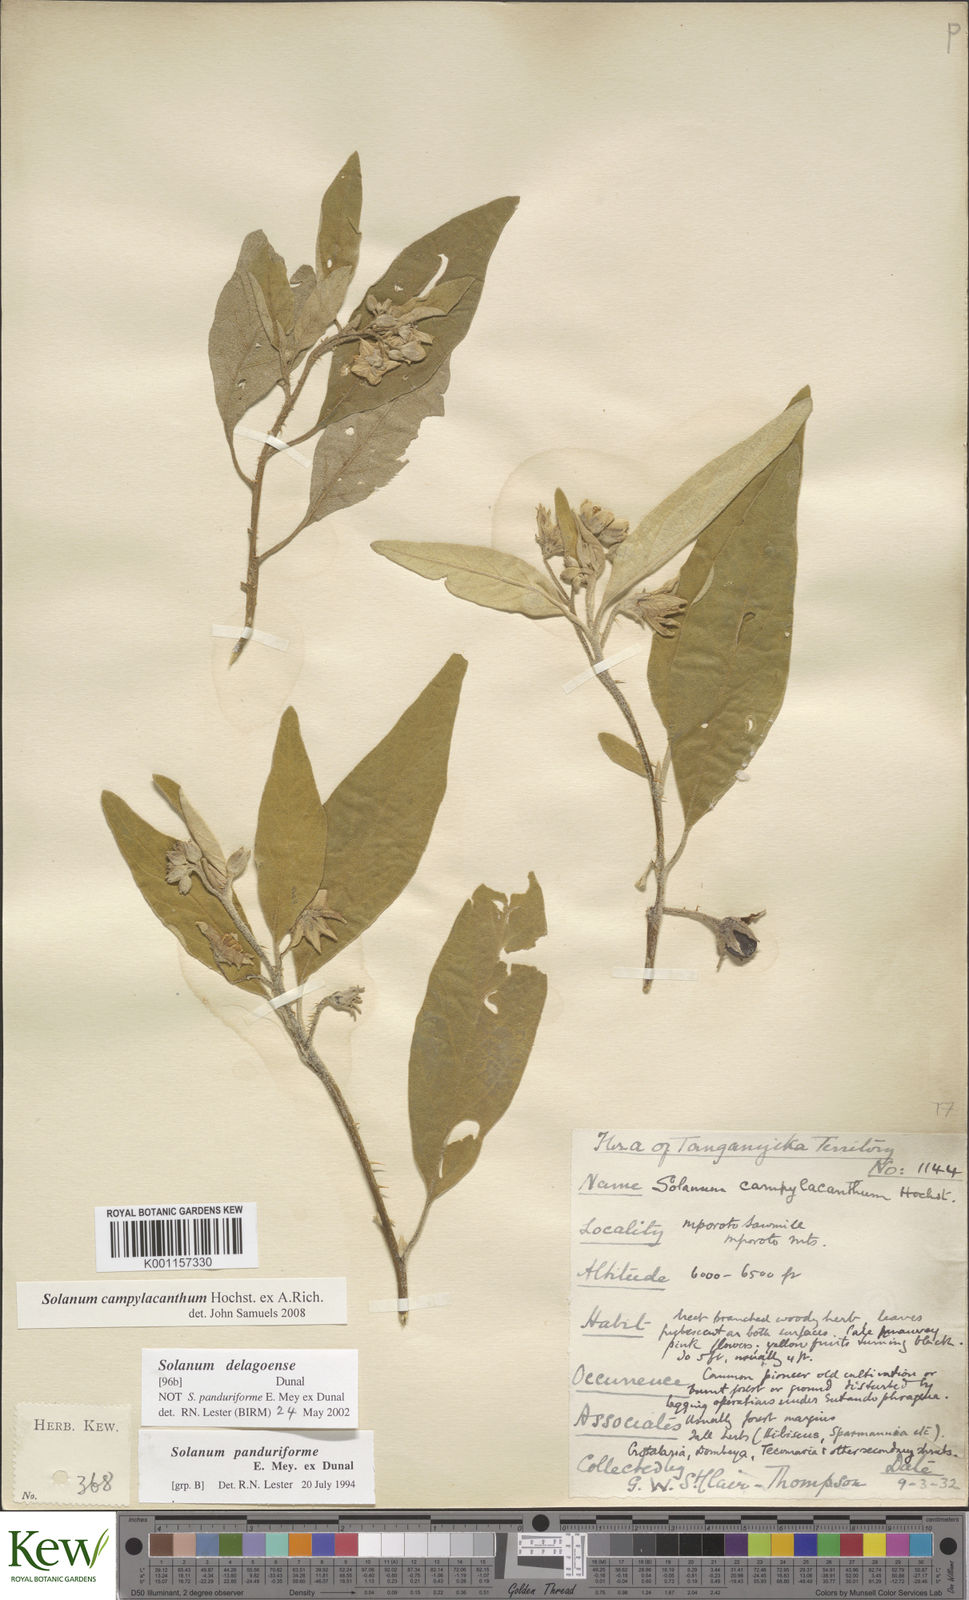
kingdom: Plantae
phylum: Tracheophyta
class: Magnoliopsida
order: Solanales
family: Solanaceae
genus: Solanum
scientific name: Solanum campylacanthum
